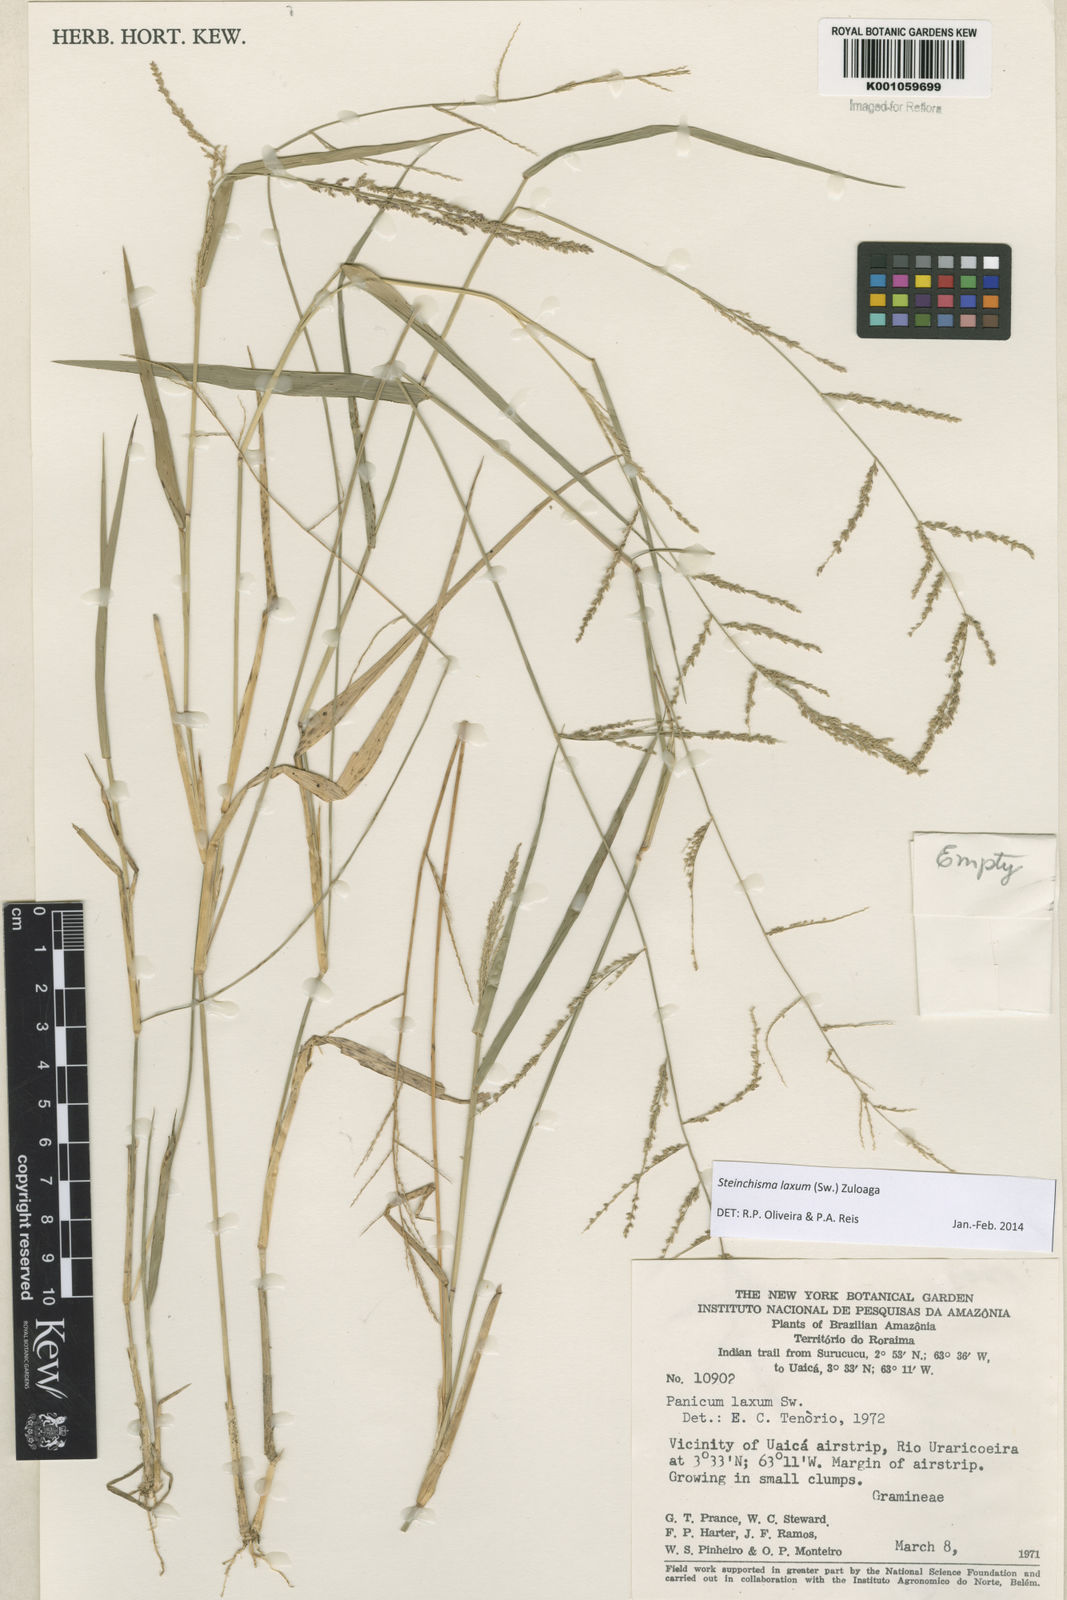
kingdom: Plantae
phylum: Tracheophyta
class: Liliopsida
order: Poales
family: Poaceae
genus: Steinchisma
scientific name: Steinchisma laxum
